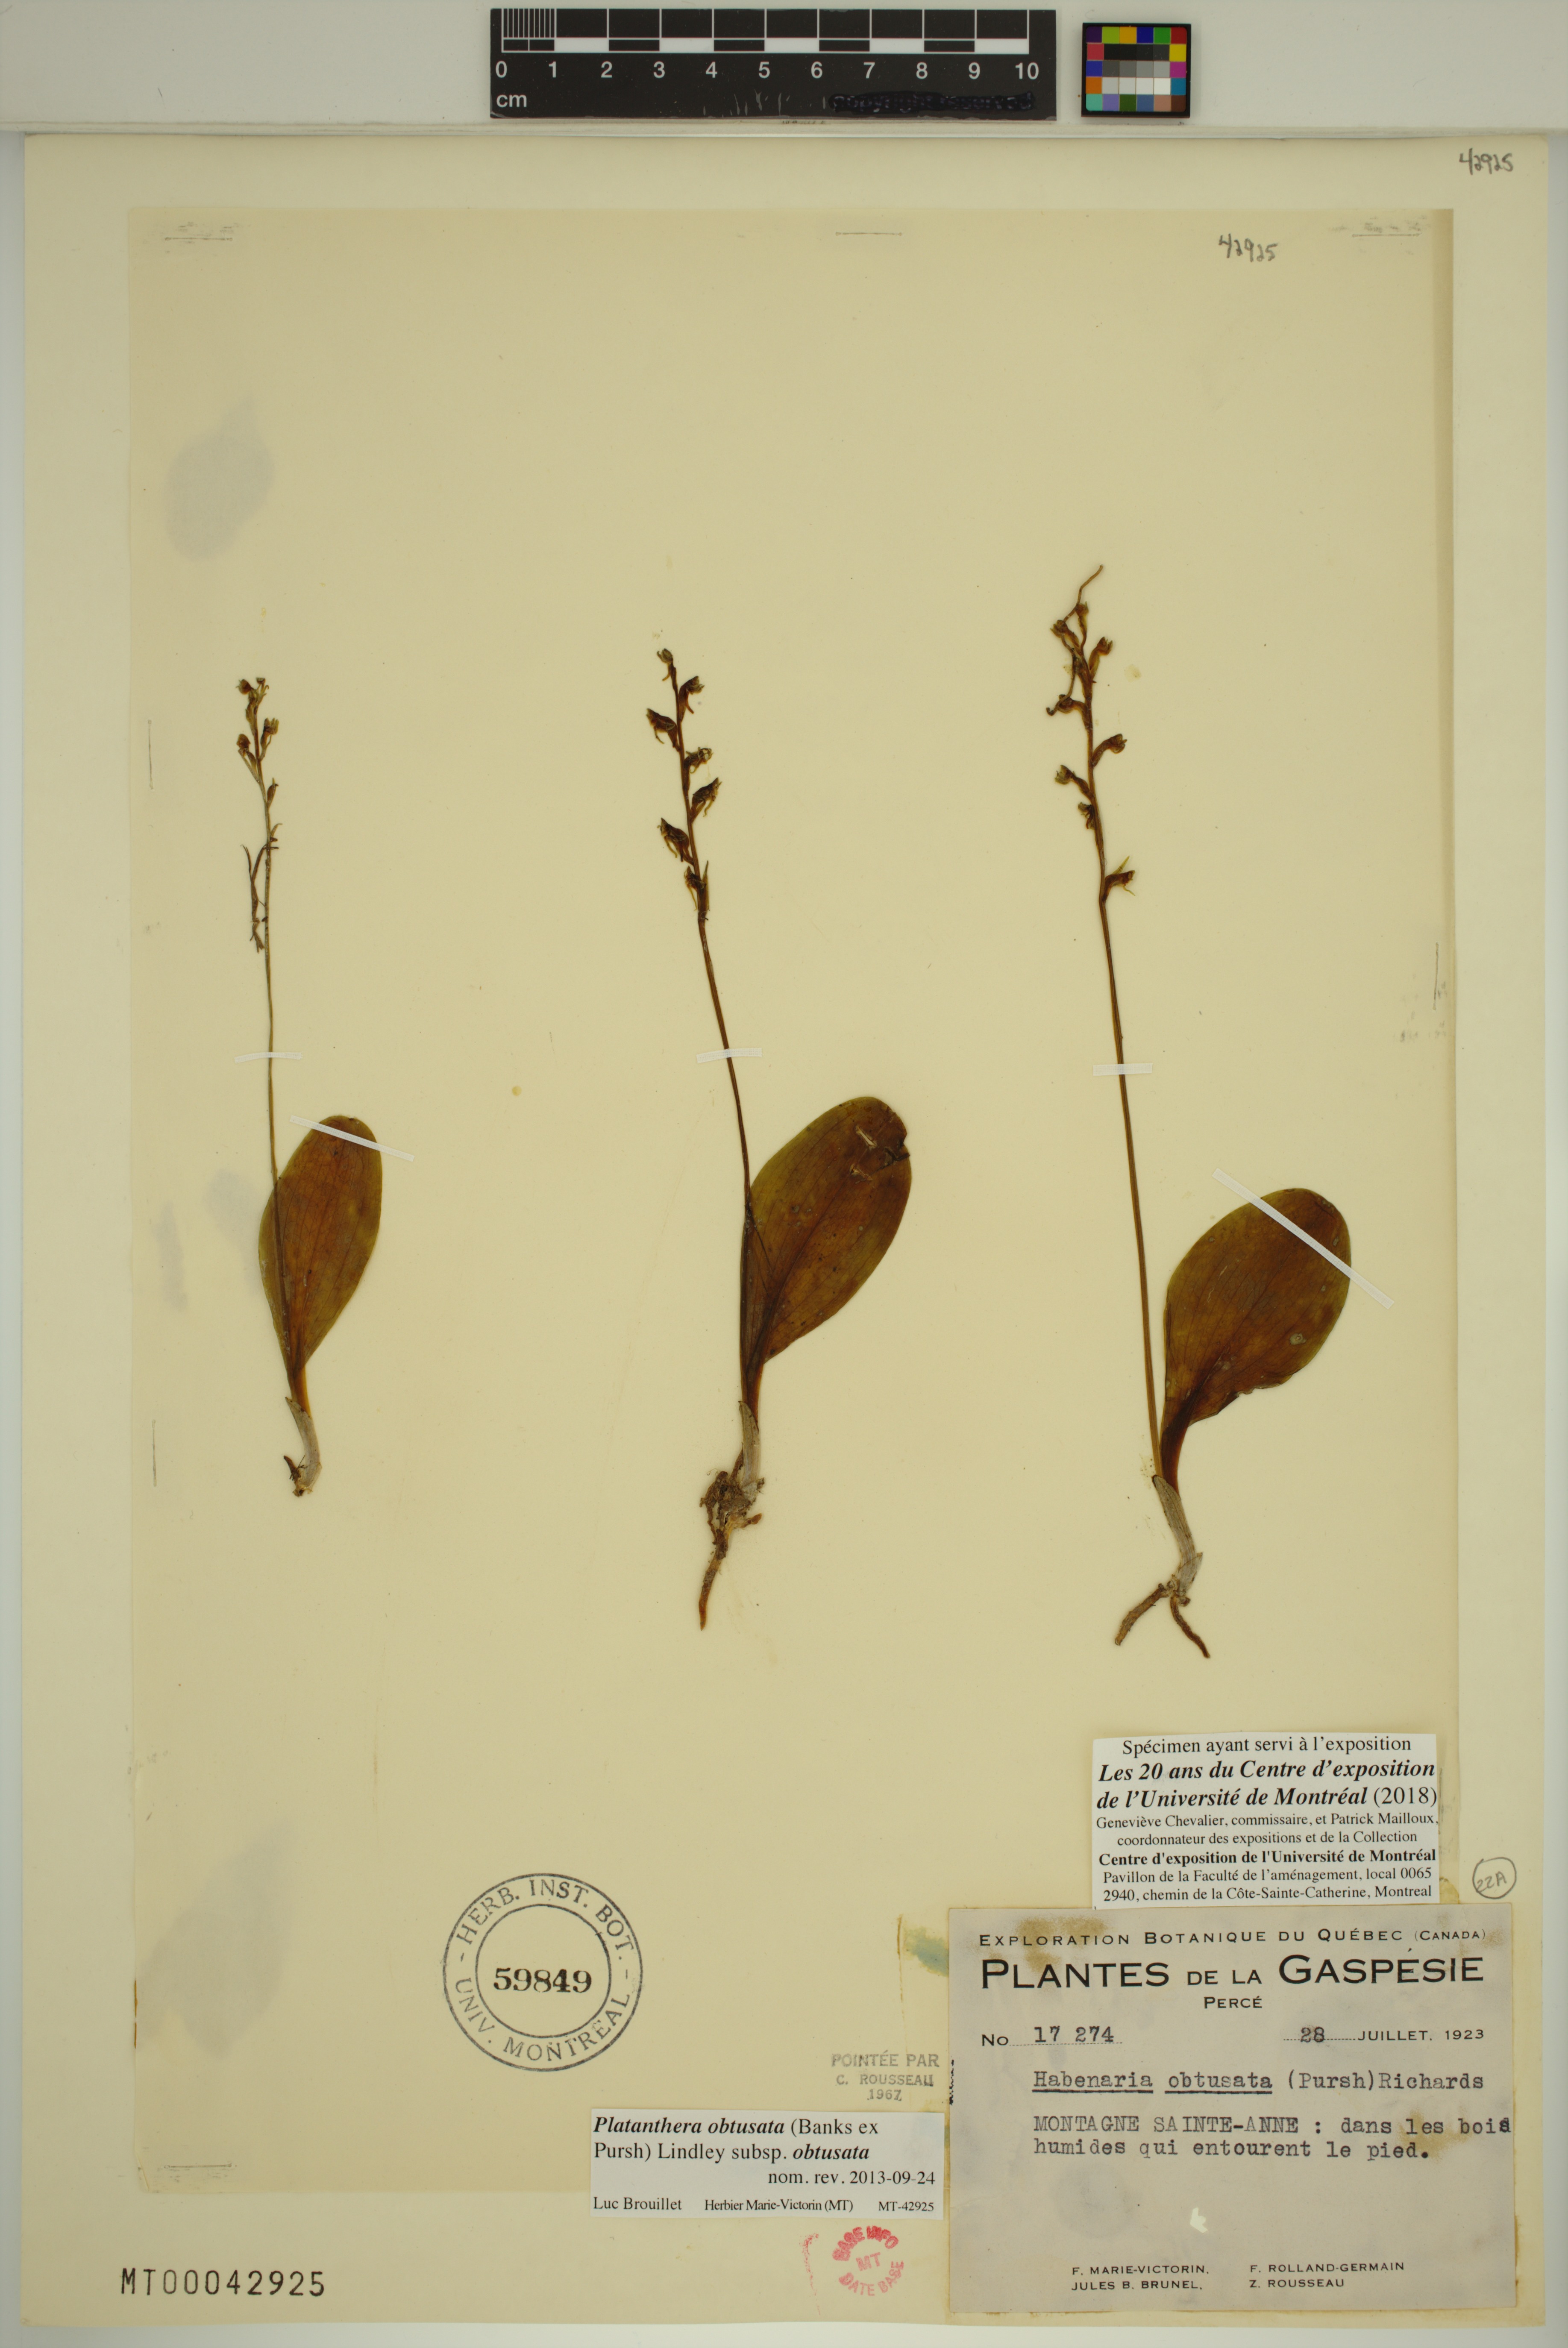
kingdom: Plantae
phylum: Tracheophyta
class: Liliopsida
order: Asparagales
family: Orchidaceae
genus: Platanthera
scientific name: Platanthera obtusata
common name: Blunt bog orchid
